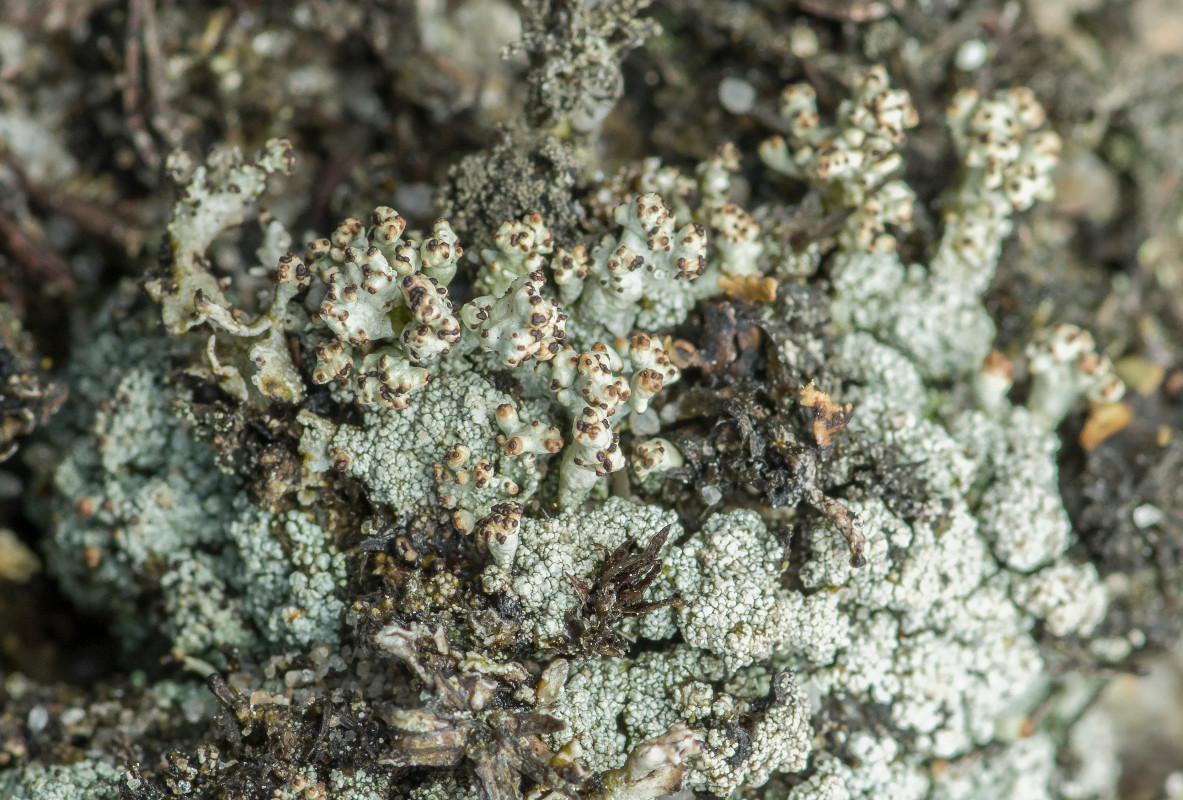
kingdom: Fungi
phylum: Ascomycota
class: Lecanoromycetes
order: Lecanorales
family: Cladoniaceae
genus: Pycnothelia
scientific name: Pycnothelia papillaria
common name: blødvortet knoplav
